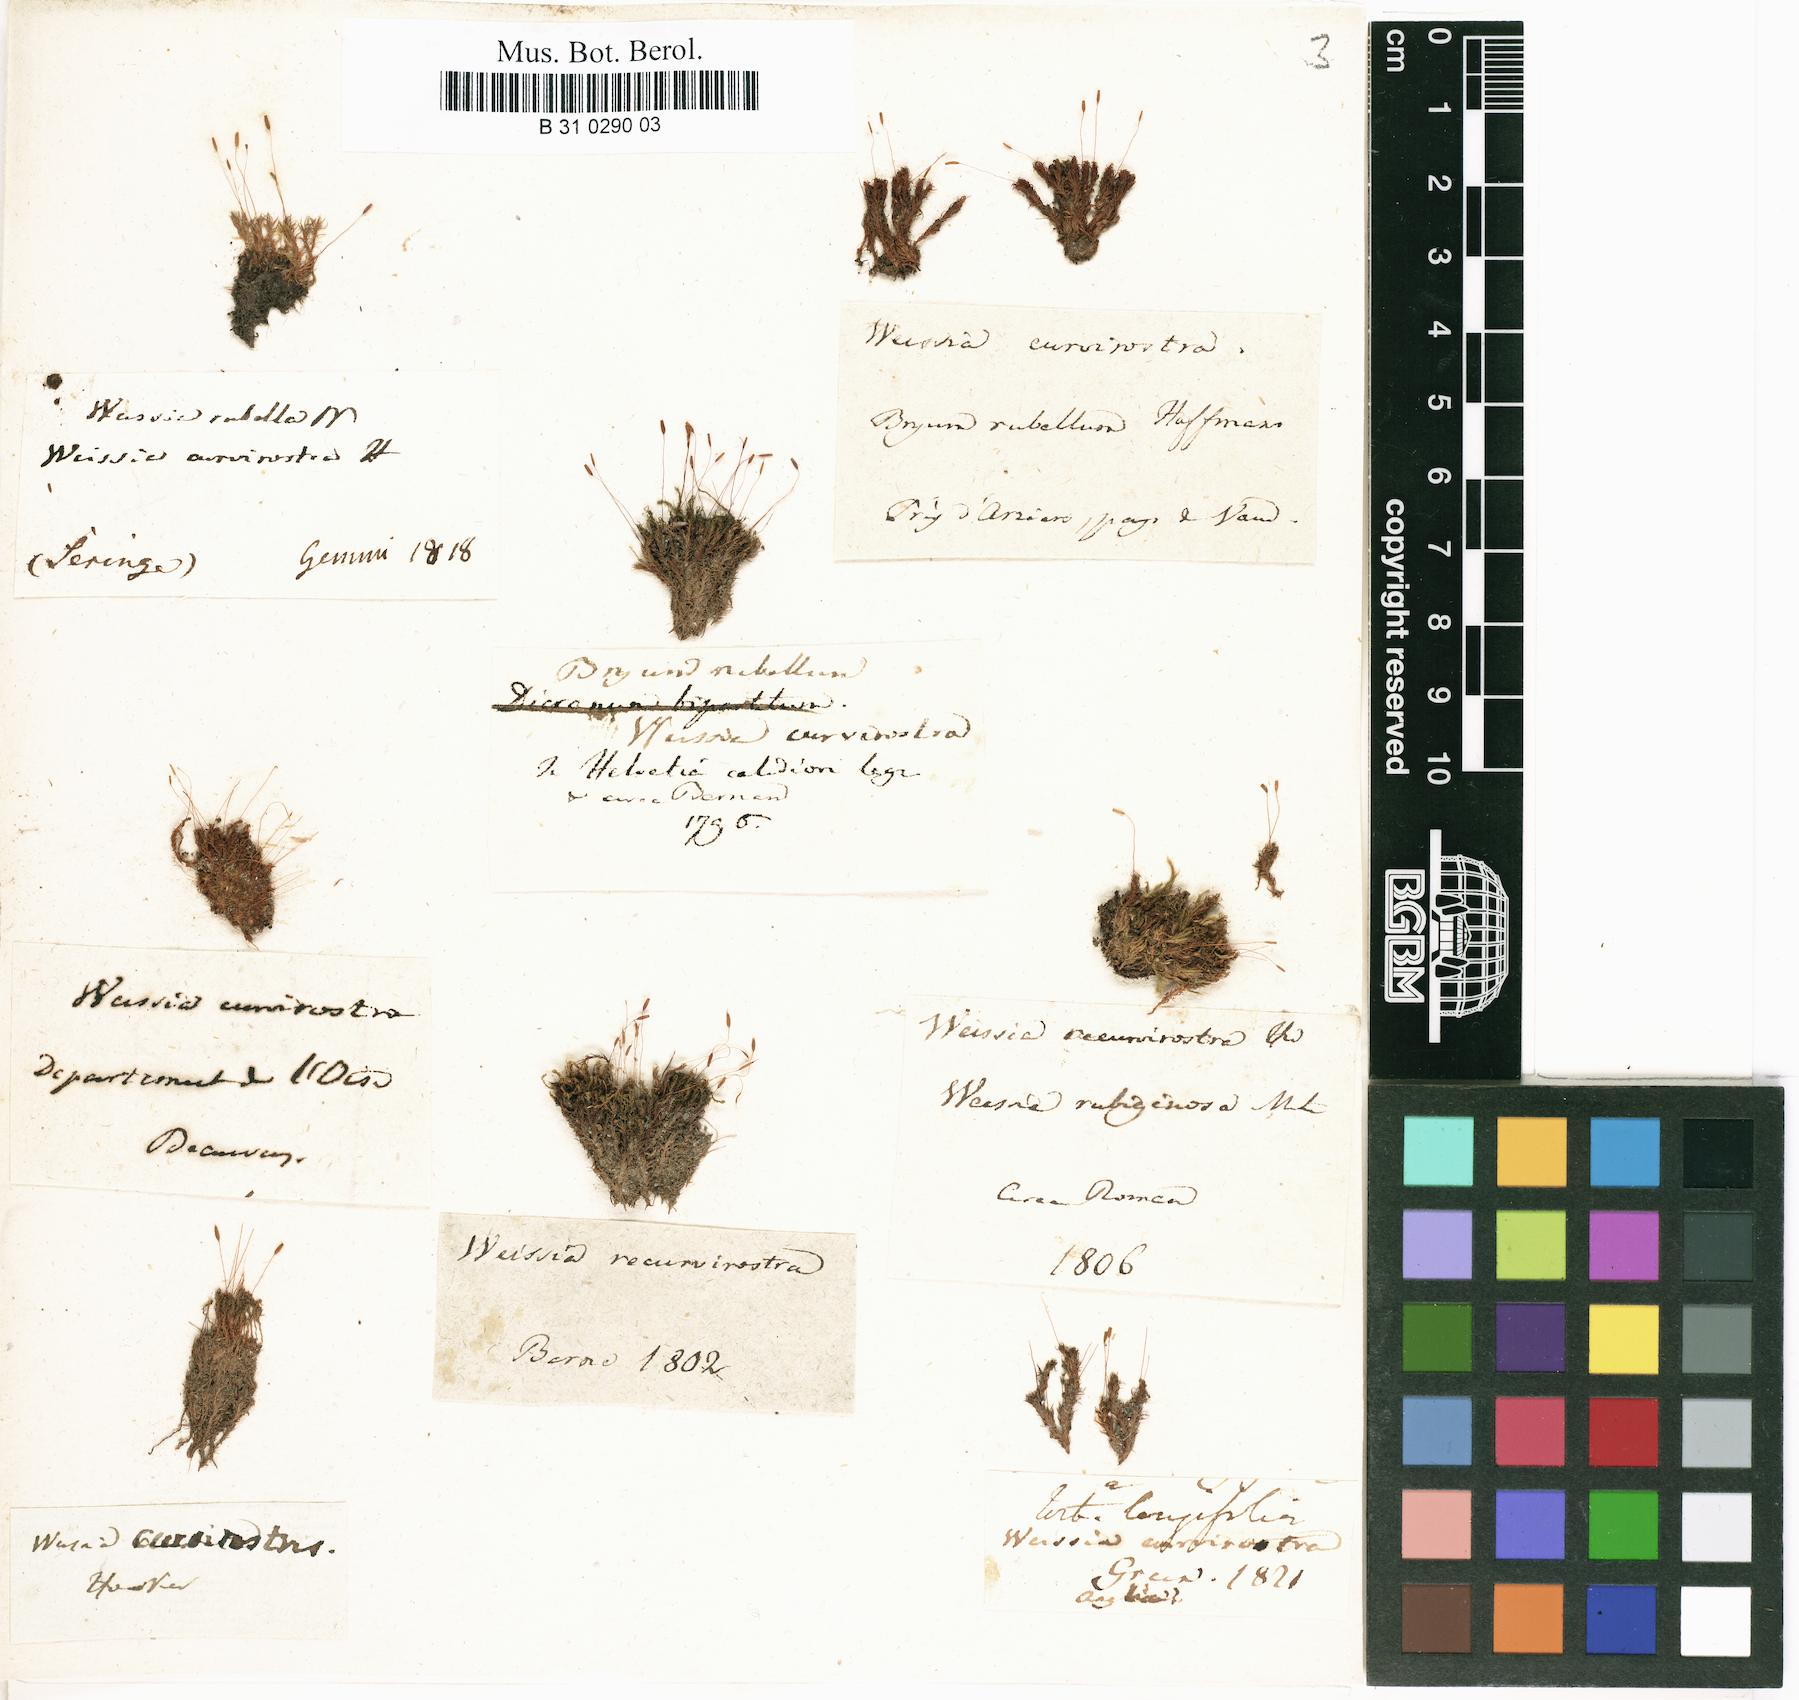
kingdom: Plantae
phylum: Bryophyta
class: Bryopsida
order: Pottiales
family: Pottiaceae
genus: Bryoerythrophyllum
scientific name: Bryoerythrophyllum recurvirostrum
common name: Red beard moss
